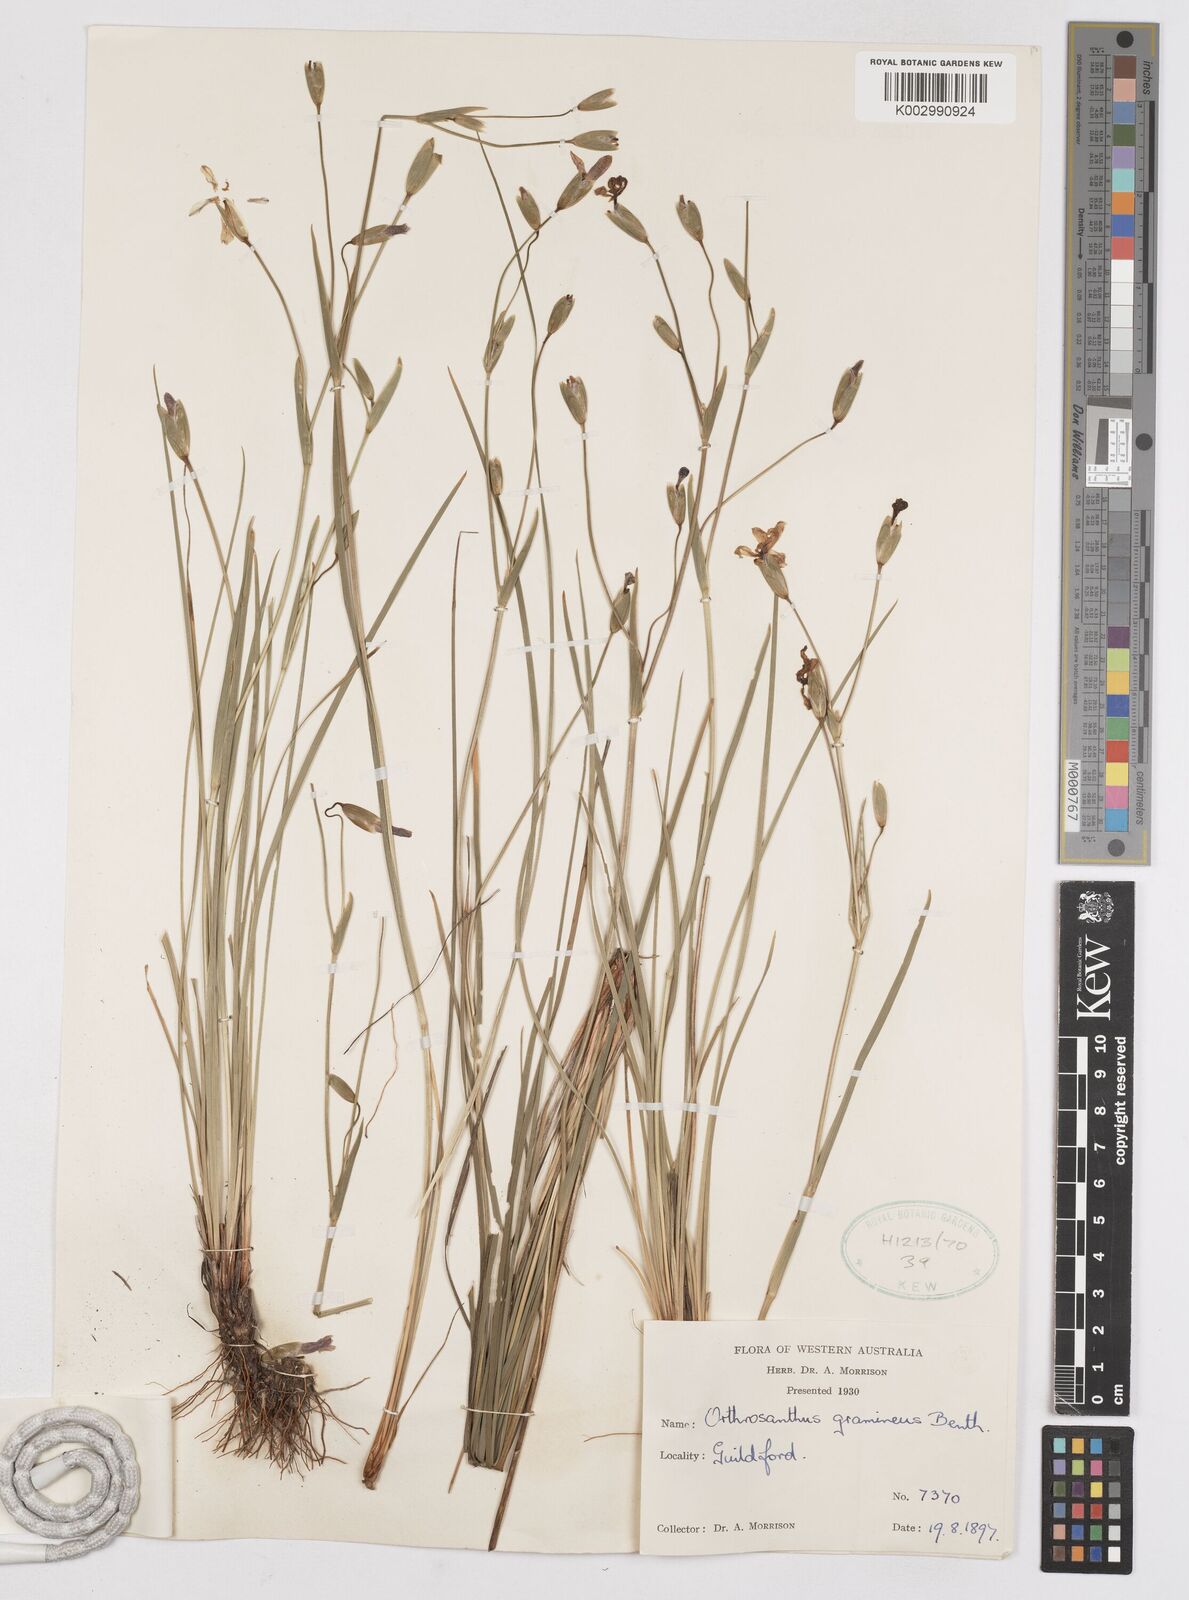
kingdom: Plantae
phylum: Tracheophyta
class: Liliopsida
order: Asparagales
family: Iridaceae
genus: Orthrosanthus
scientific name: Orthrosanthus laxus
